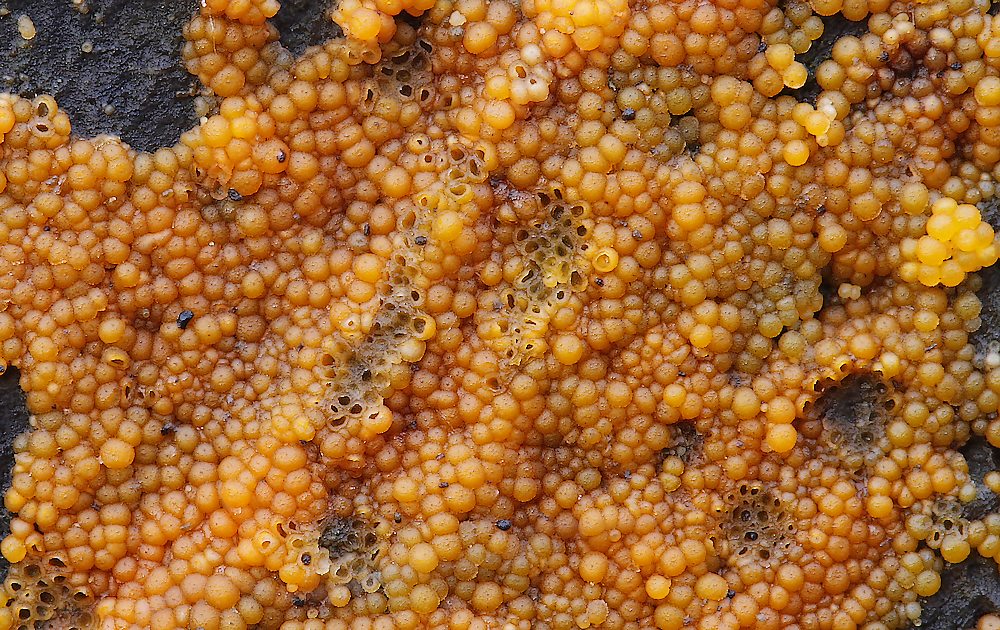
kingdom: Fungi
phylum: Ascomycota
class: Sordariomycetes
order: Hypocreales
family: Nectriaceae
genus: Hydropisphaera
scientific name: Hydropisphaera peziza
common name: skålformet gyldenkerne
